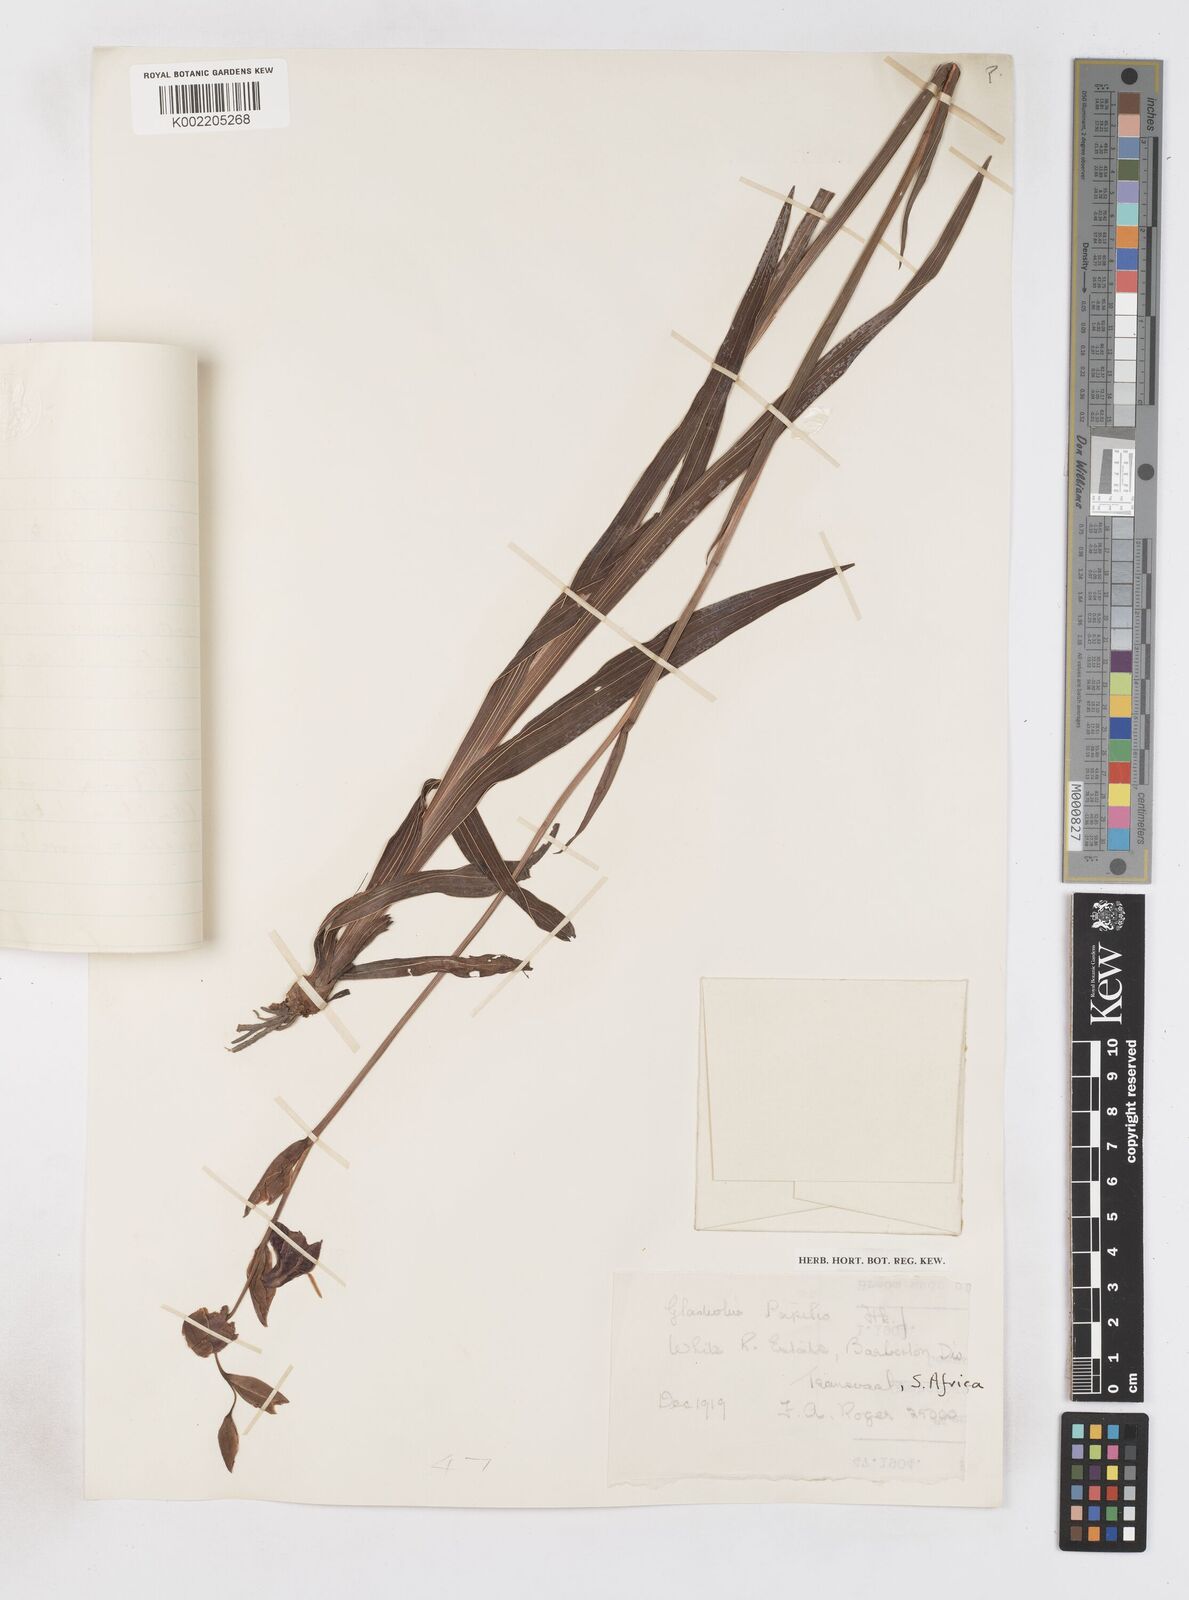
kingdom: Plantae
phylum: Tracheophyta
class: Liliopsida
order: Asparagales
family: Iridaceae
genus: Gladiolus
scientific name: Gladiolus papilio
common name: Goldblotch gladiolus
